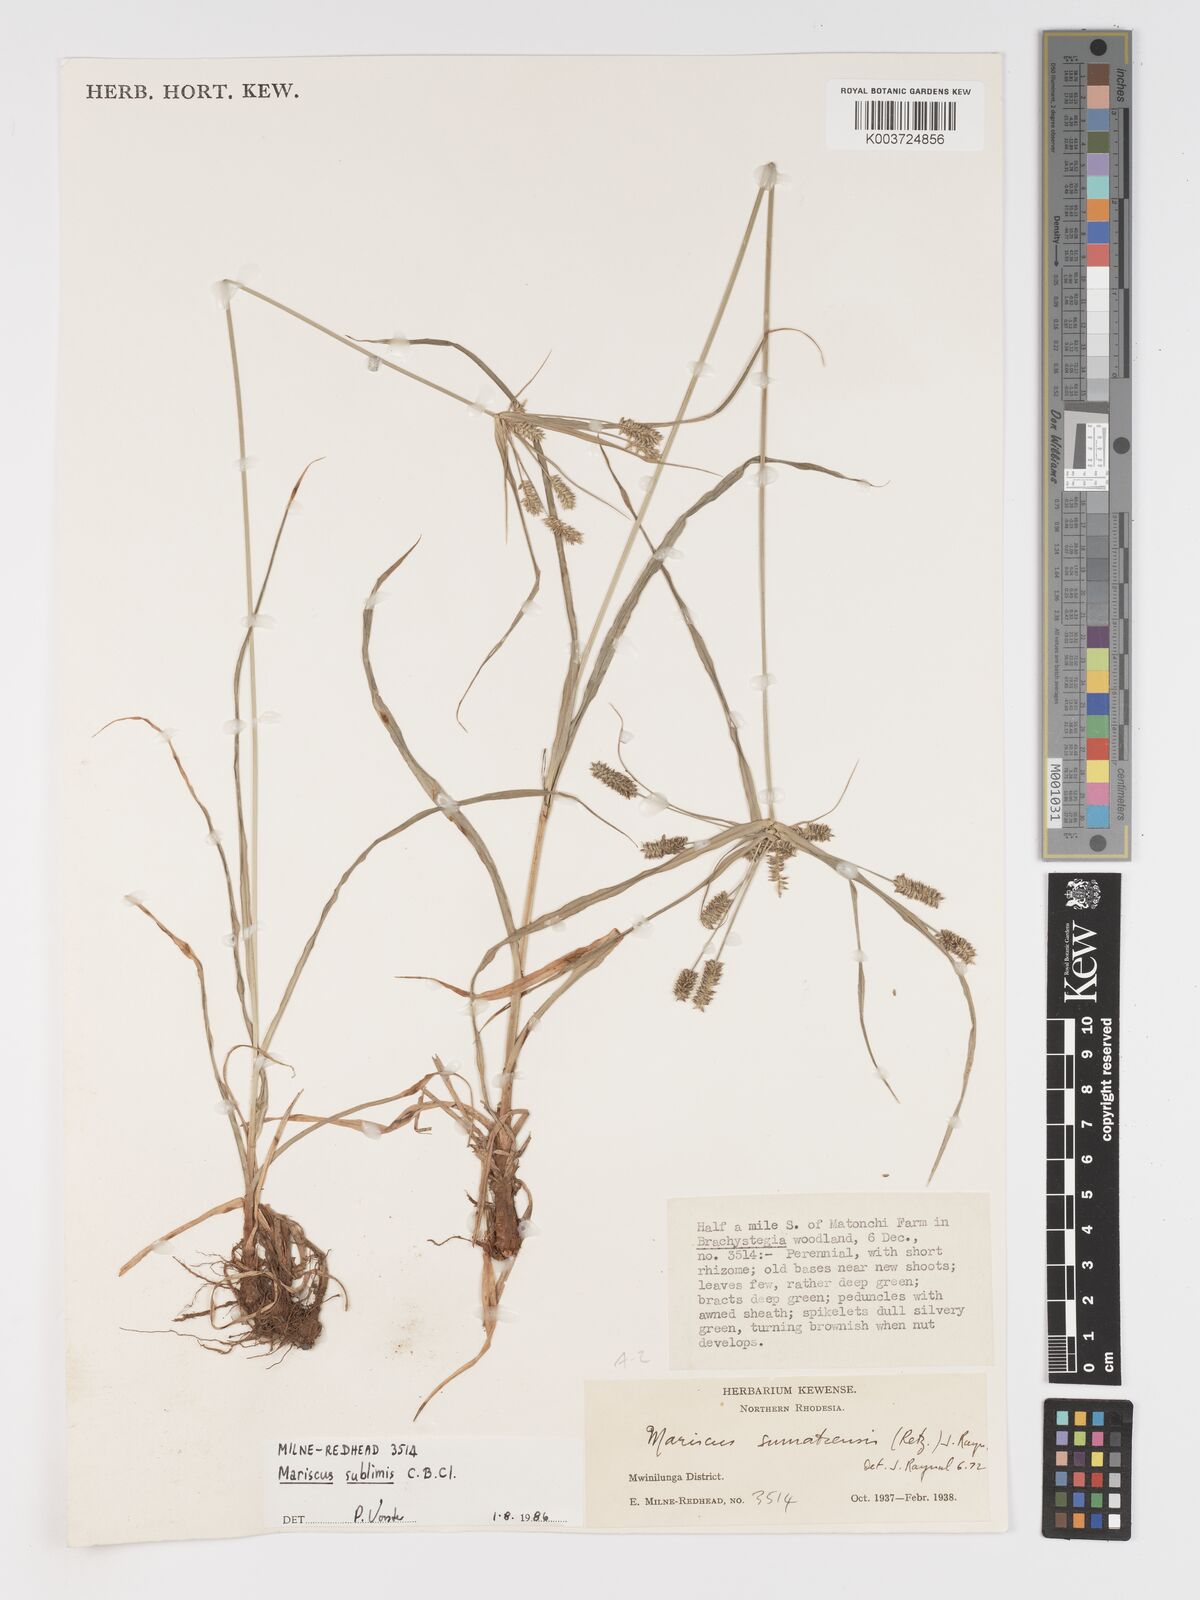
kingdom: Plantae
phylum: Tracheophyta
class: Liliopsida
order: Poales
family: Cyperaceae
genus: Cyperus
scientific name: Cyperus cyperoides
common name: Pacific island flat sedge
